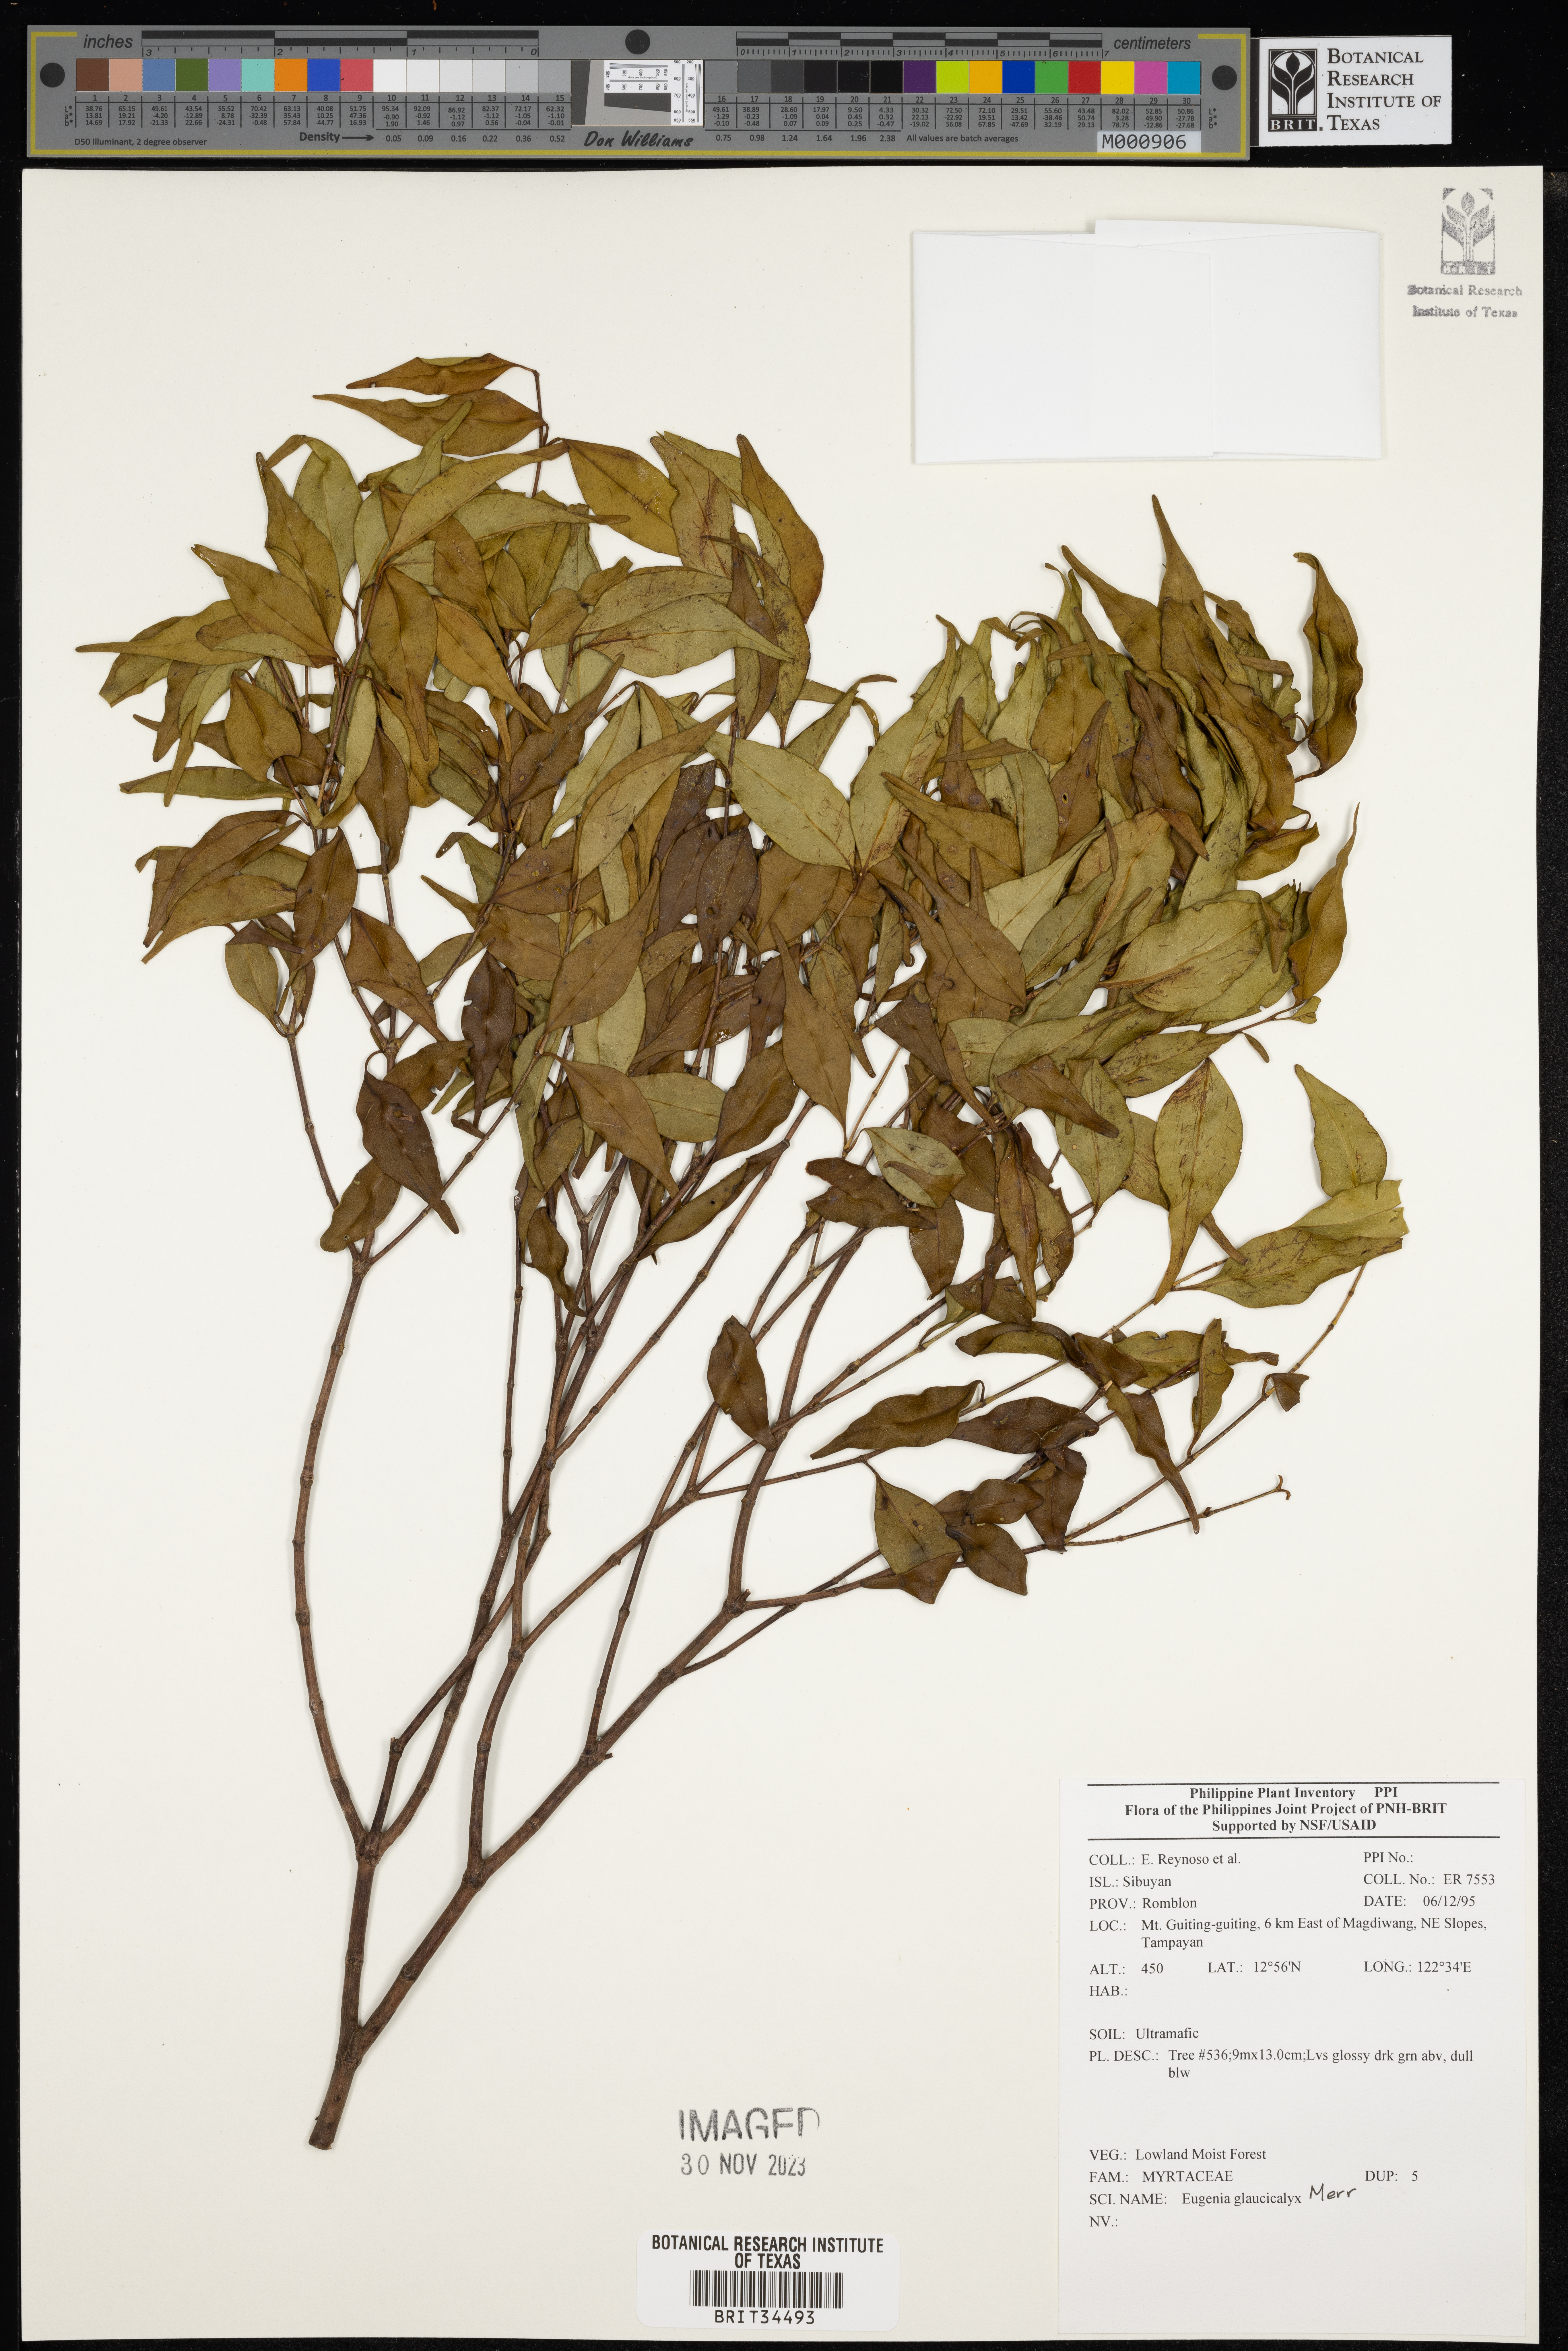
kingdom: Plantae
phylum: Tracheophyta
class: Magnoliopsida
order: Myrtales
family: Myrtaceae
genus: Eugenia
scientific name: Eugenia
